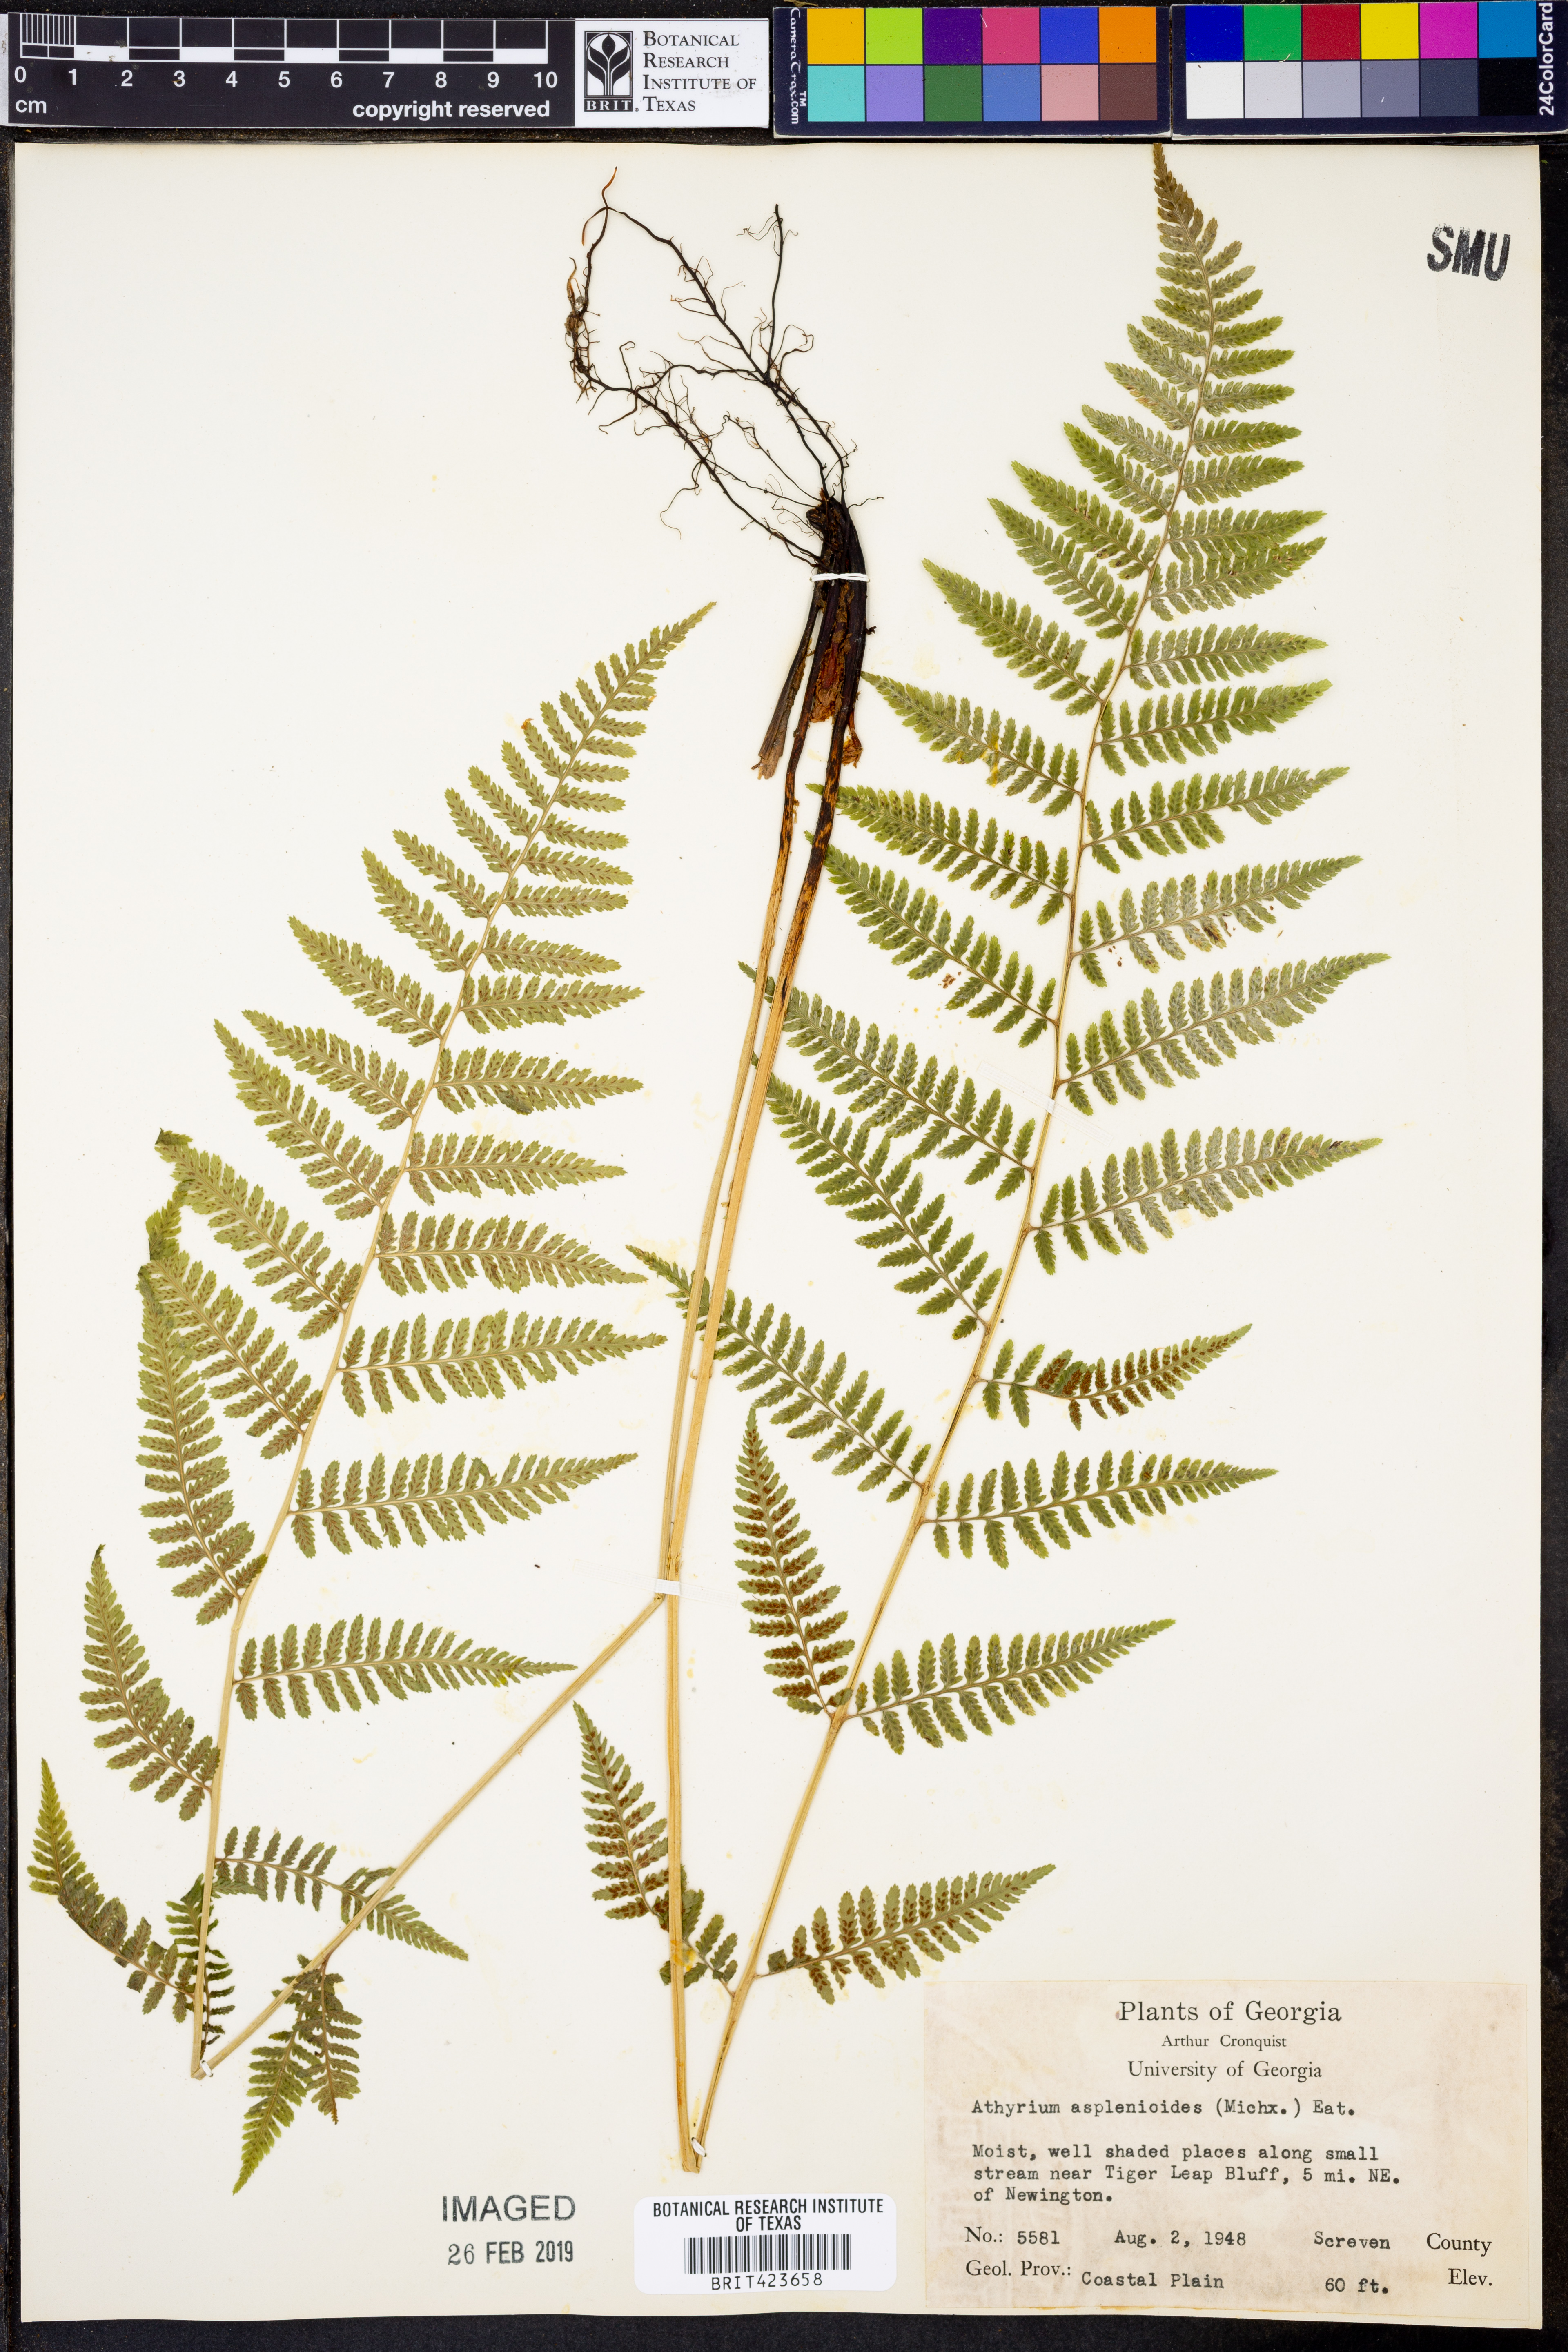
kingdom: Plantae
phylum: Tracheophyta
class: Polypodiopsida
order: Polypodiales
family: Athyriaceae
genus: Athyrium
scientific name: Athyrium asplenioides
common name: Southern lady fern
